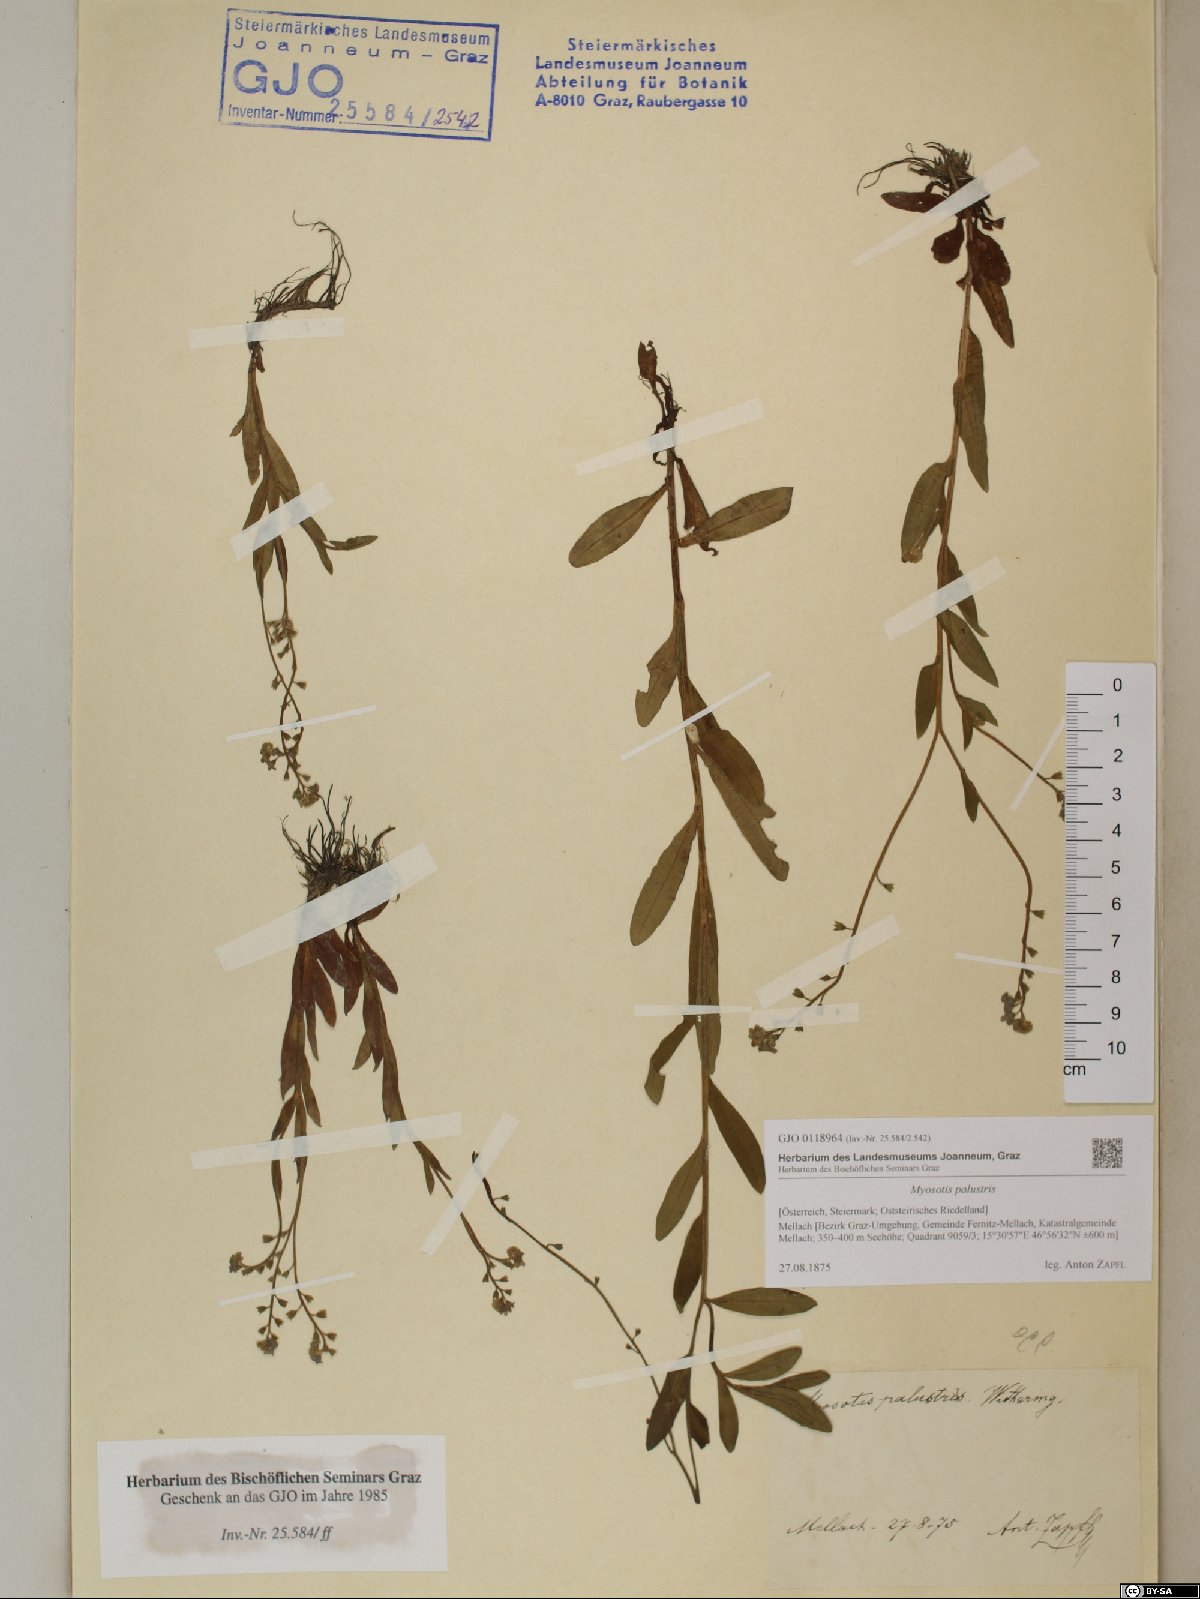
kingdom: Plantae
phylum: Tracheophyta
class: Magnoliopsida
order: Boraginales
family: Boraginaceae
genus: Myosotis
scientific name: Myosotis scorpioides
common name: Water forget-me-not
